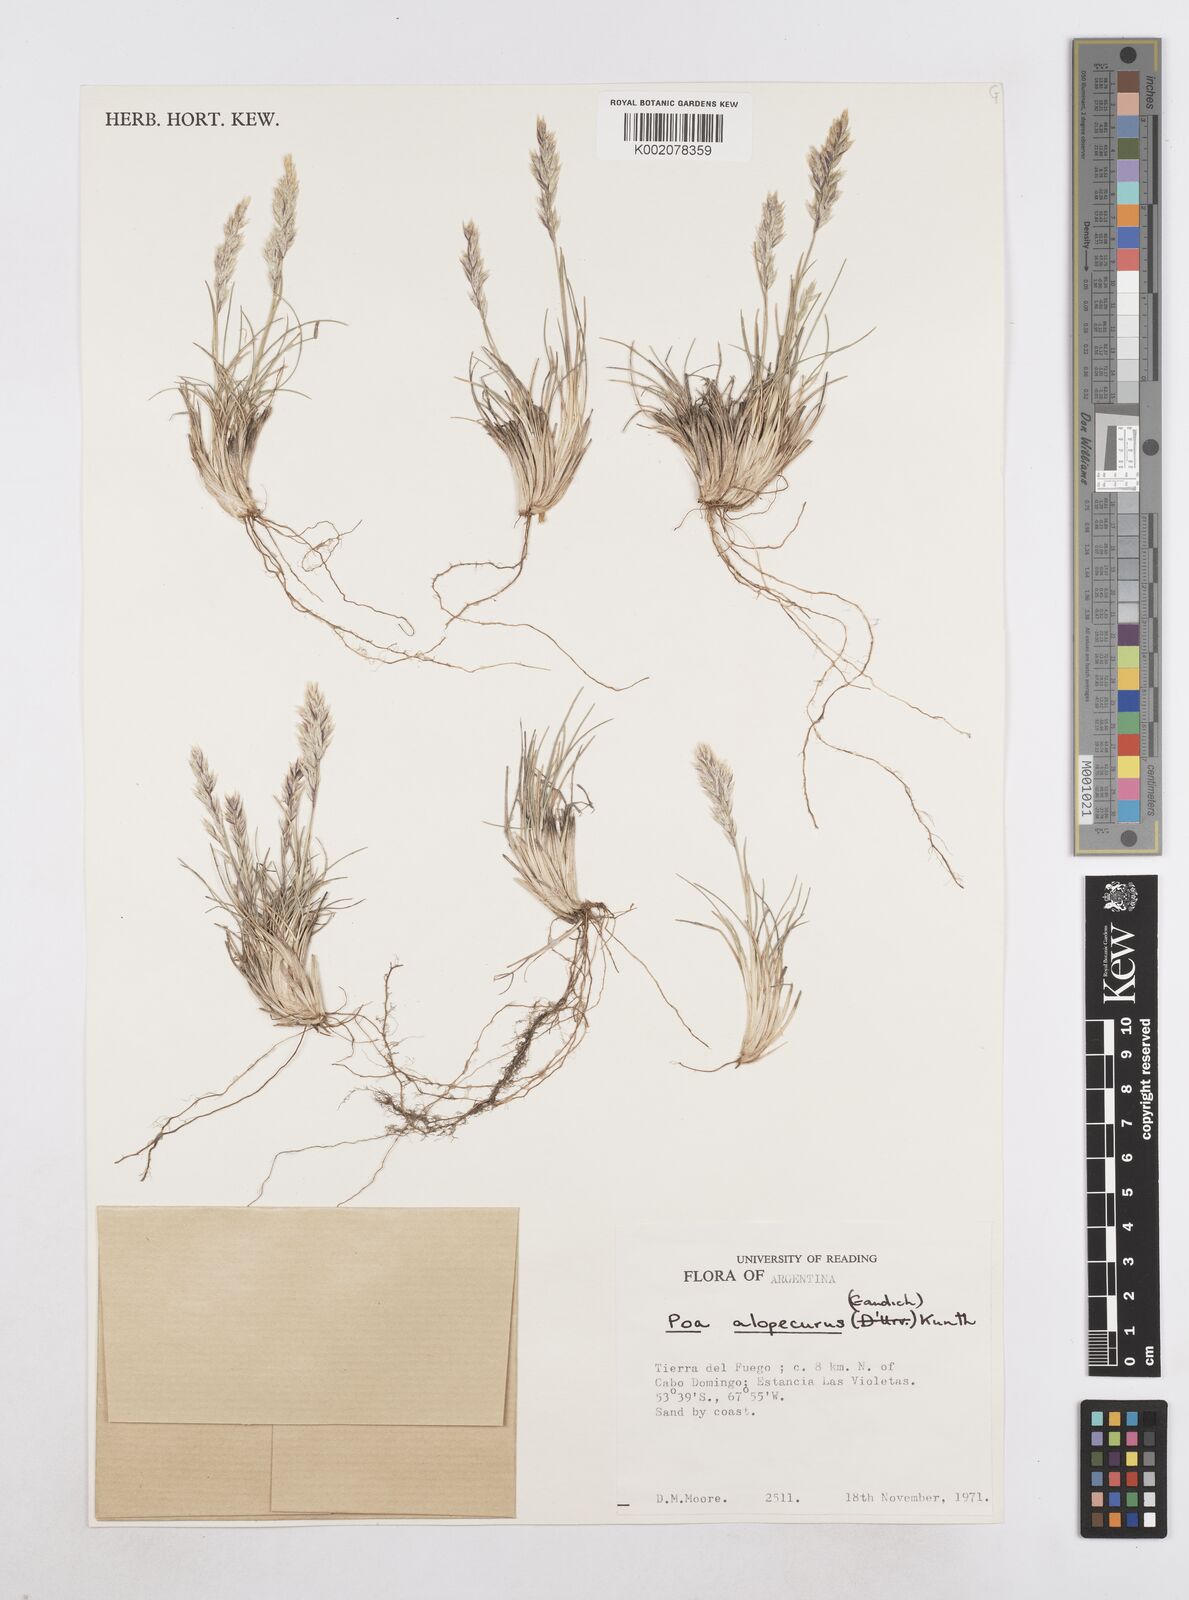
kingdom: Plantae
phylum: Tracheophyta
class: Liliopsida
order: Poales
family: Poaceae
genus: Poa
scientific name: Poa alopecurus
